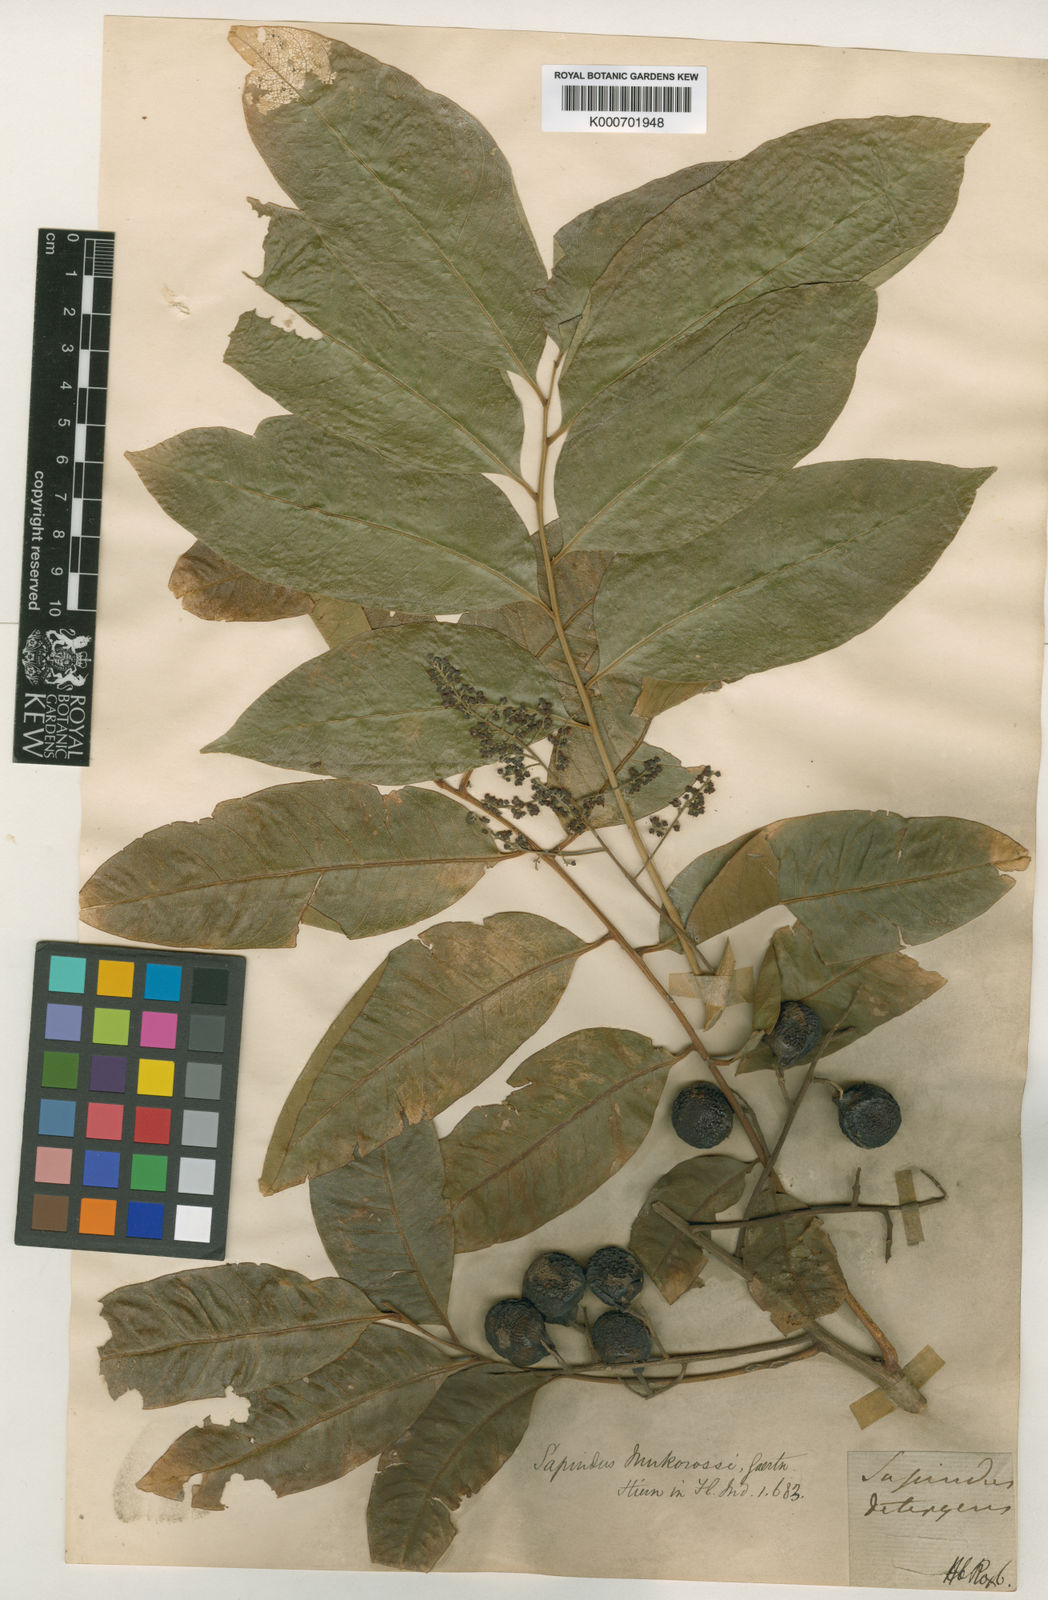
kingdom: Plantae
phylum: Tracheophyta
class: Magnoliopsida
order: Sapindales
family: Sapindaceae
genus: Sapindus
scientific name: Sapindus saponaria
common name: Wingleaf soapberry
